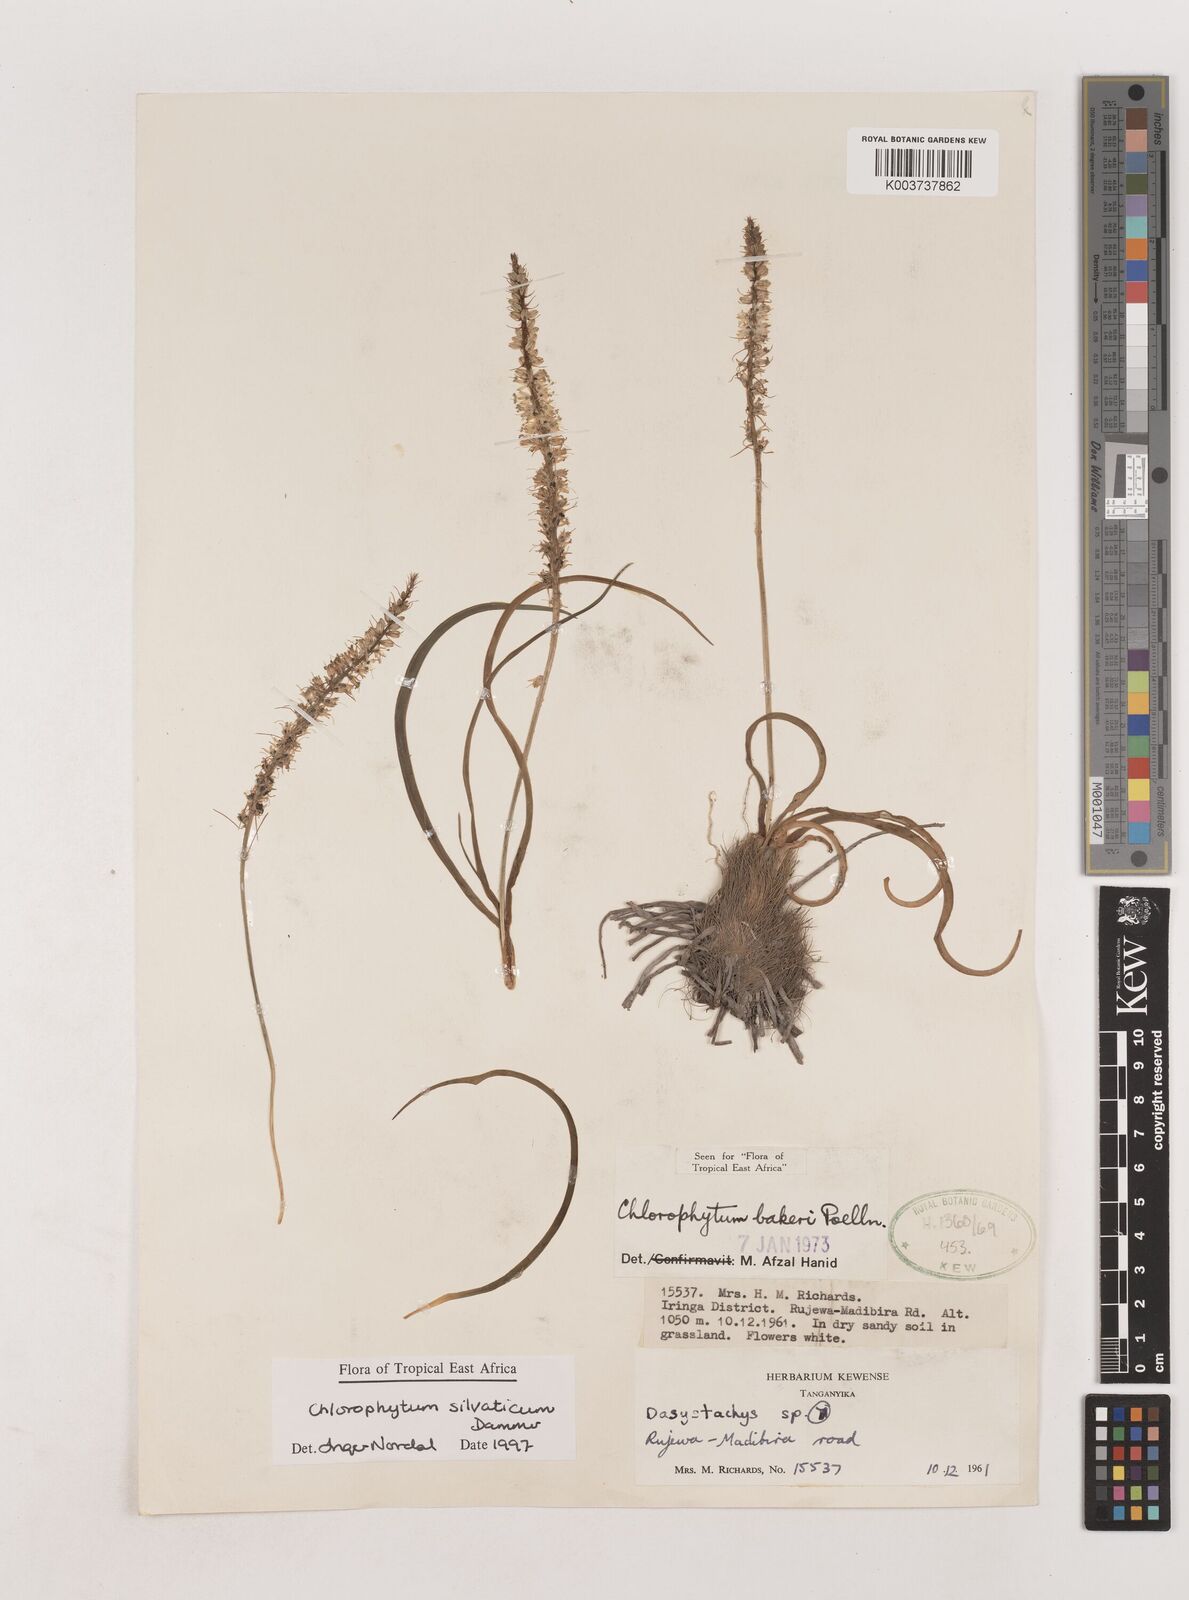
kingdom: Plantae
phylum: Tracheophyta
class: Liliopsida
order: Asparagales
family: Asparagaceae
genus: Chlorophytum
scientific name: Chlorophytum africanum
